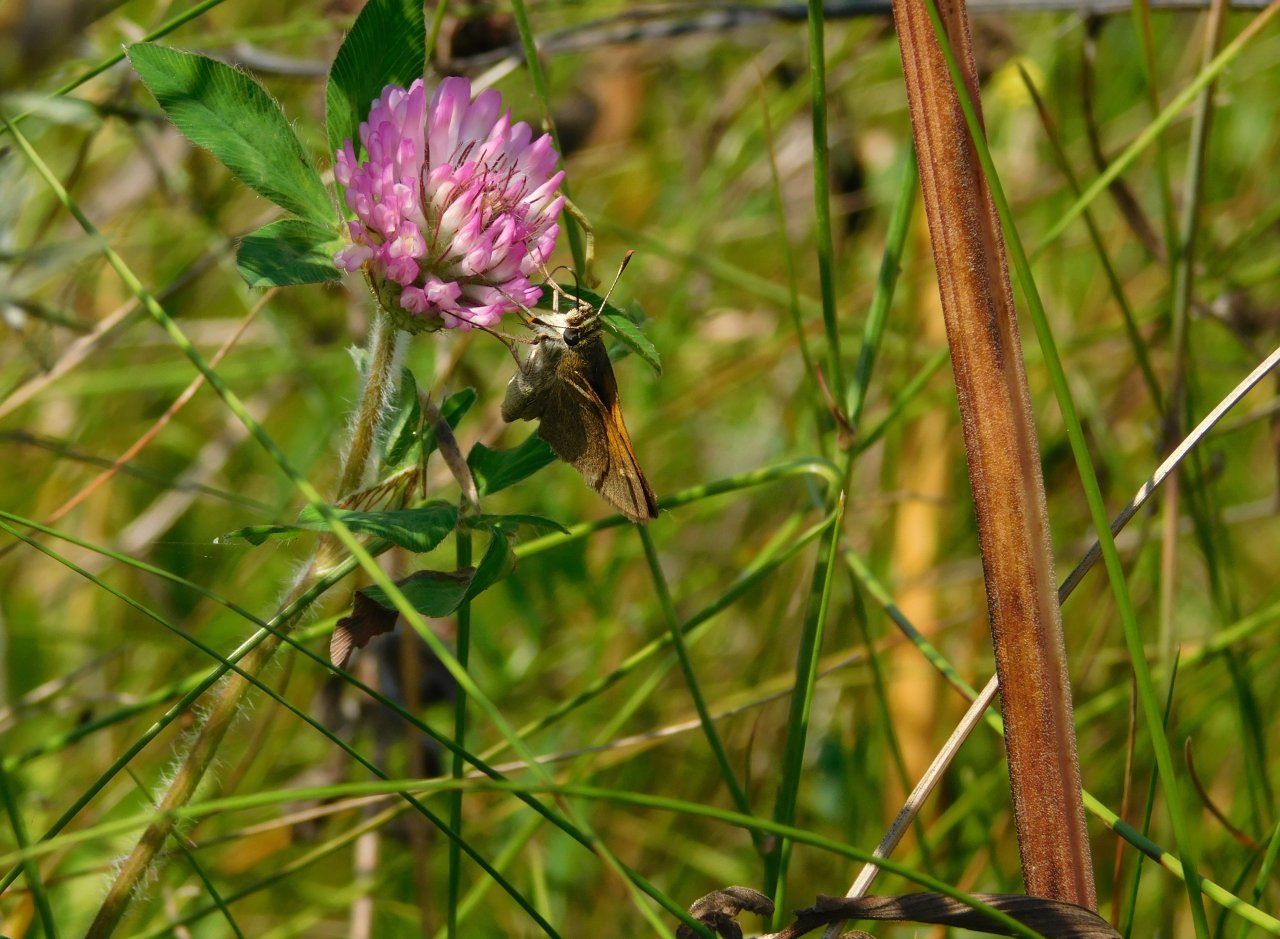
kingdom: Animalia
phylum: Arthropoda
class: Insecta
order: Lepidoptera
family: Hesperiidae
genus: Polites
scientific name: Polites themistocles
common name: Tawny-edged Skipper
